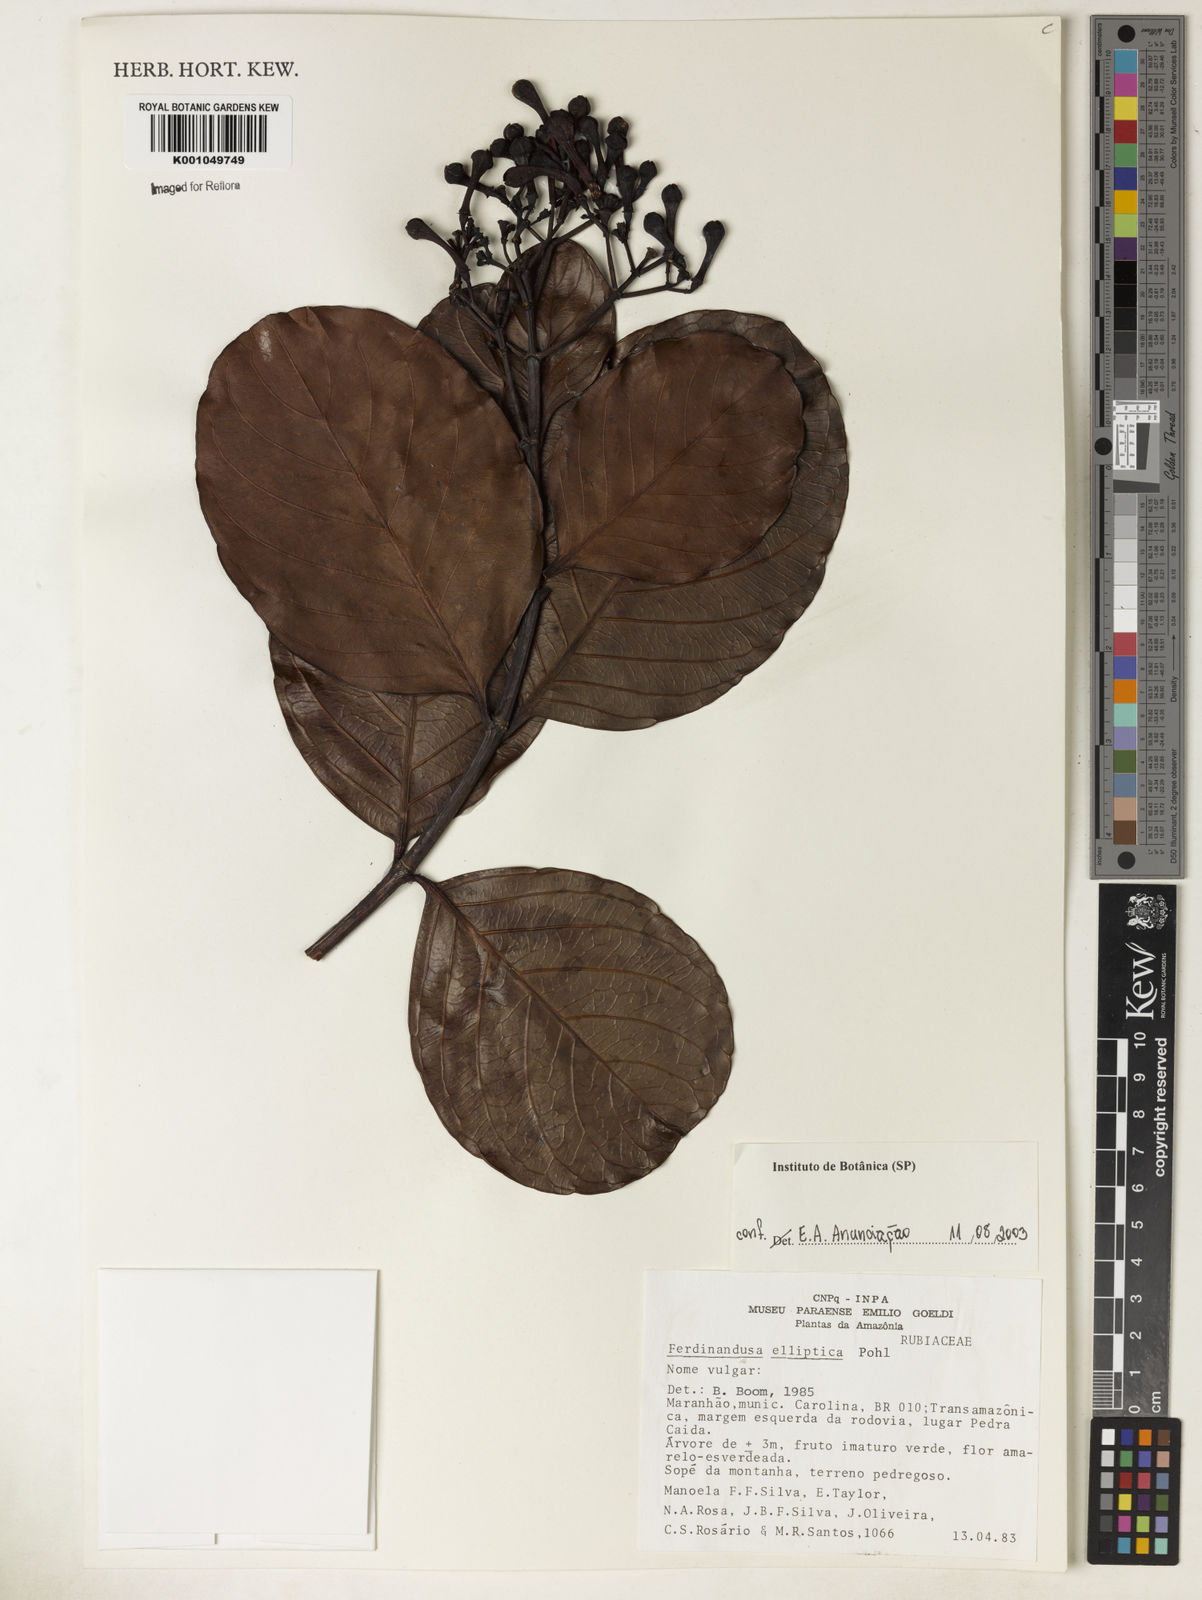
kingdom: Plantae
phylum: Tracheophyta
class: Magnoliopsida
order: Gentianales
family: Rubiaceae
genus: Ferdinandusa
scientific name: Ferdinandusa elliptica
